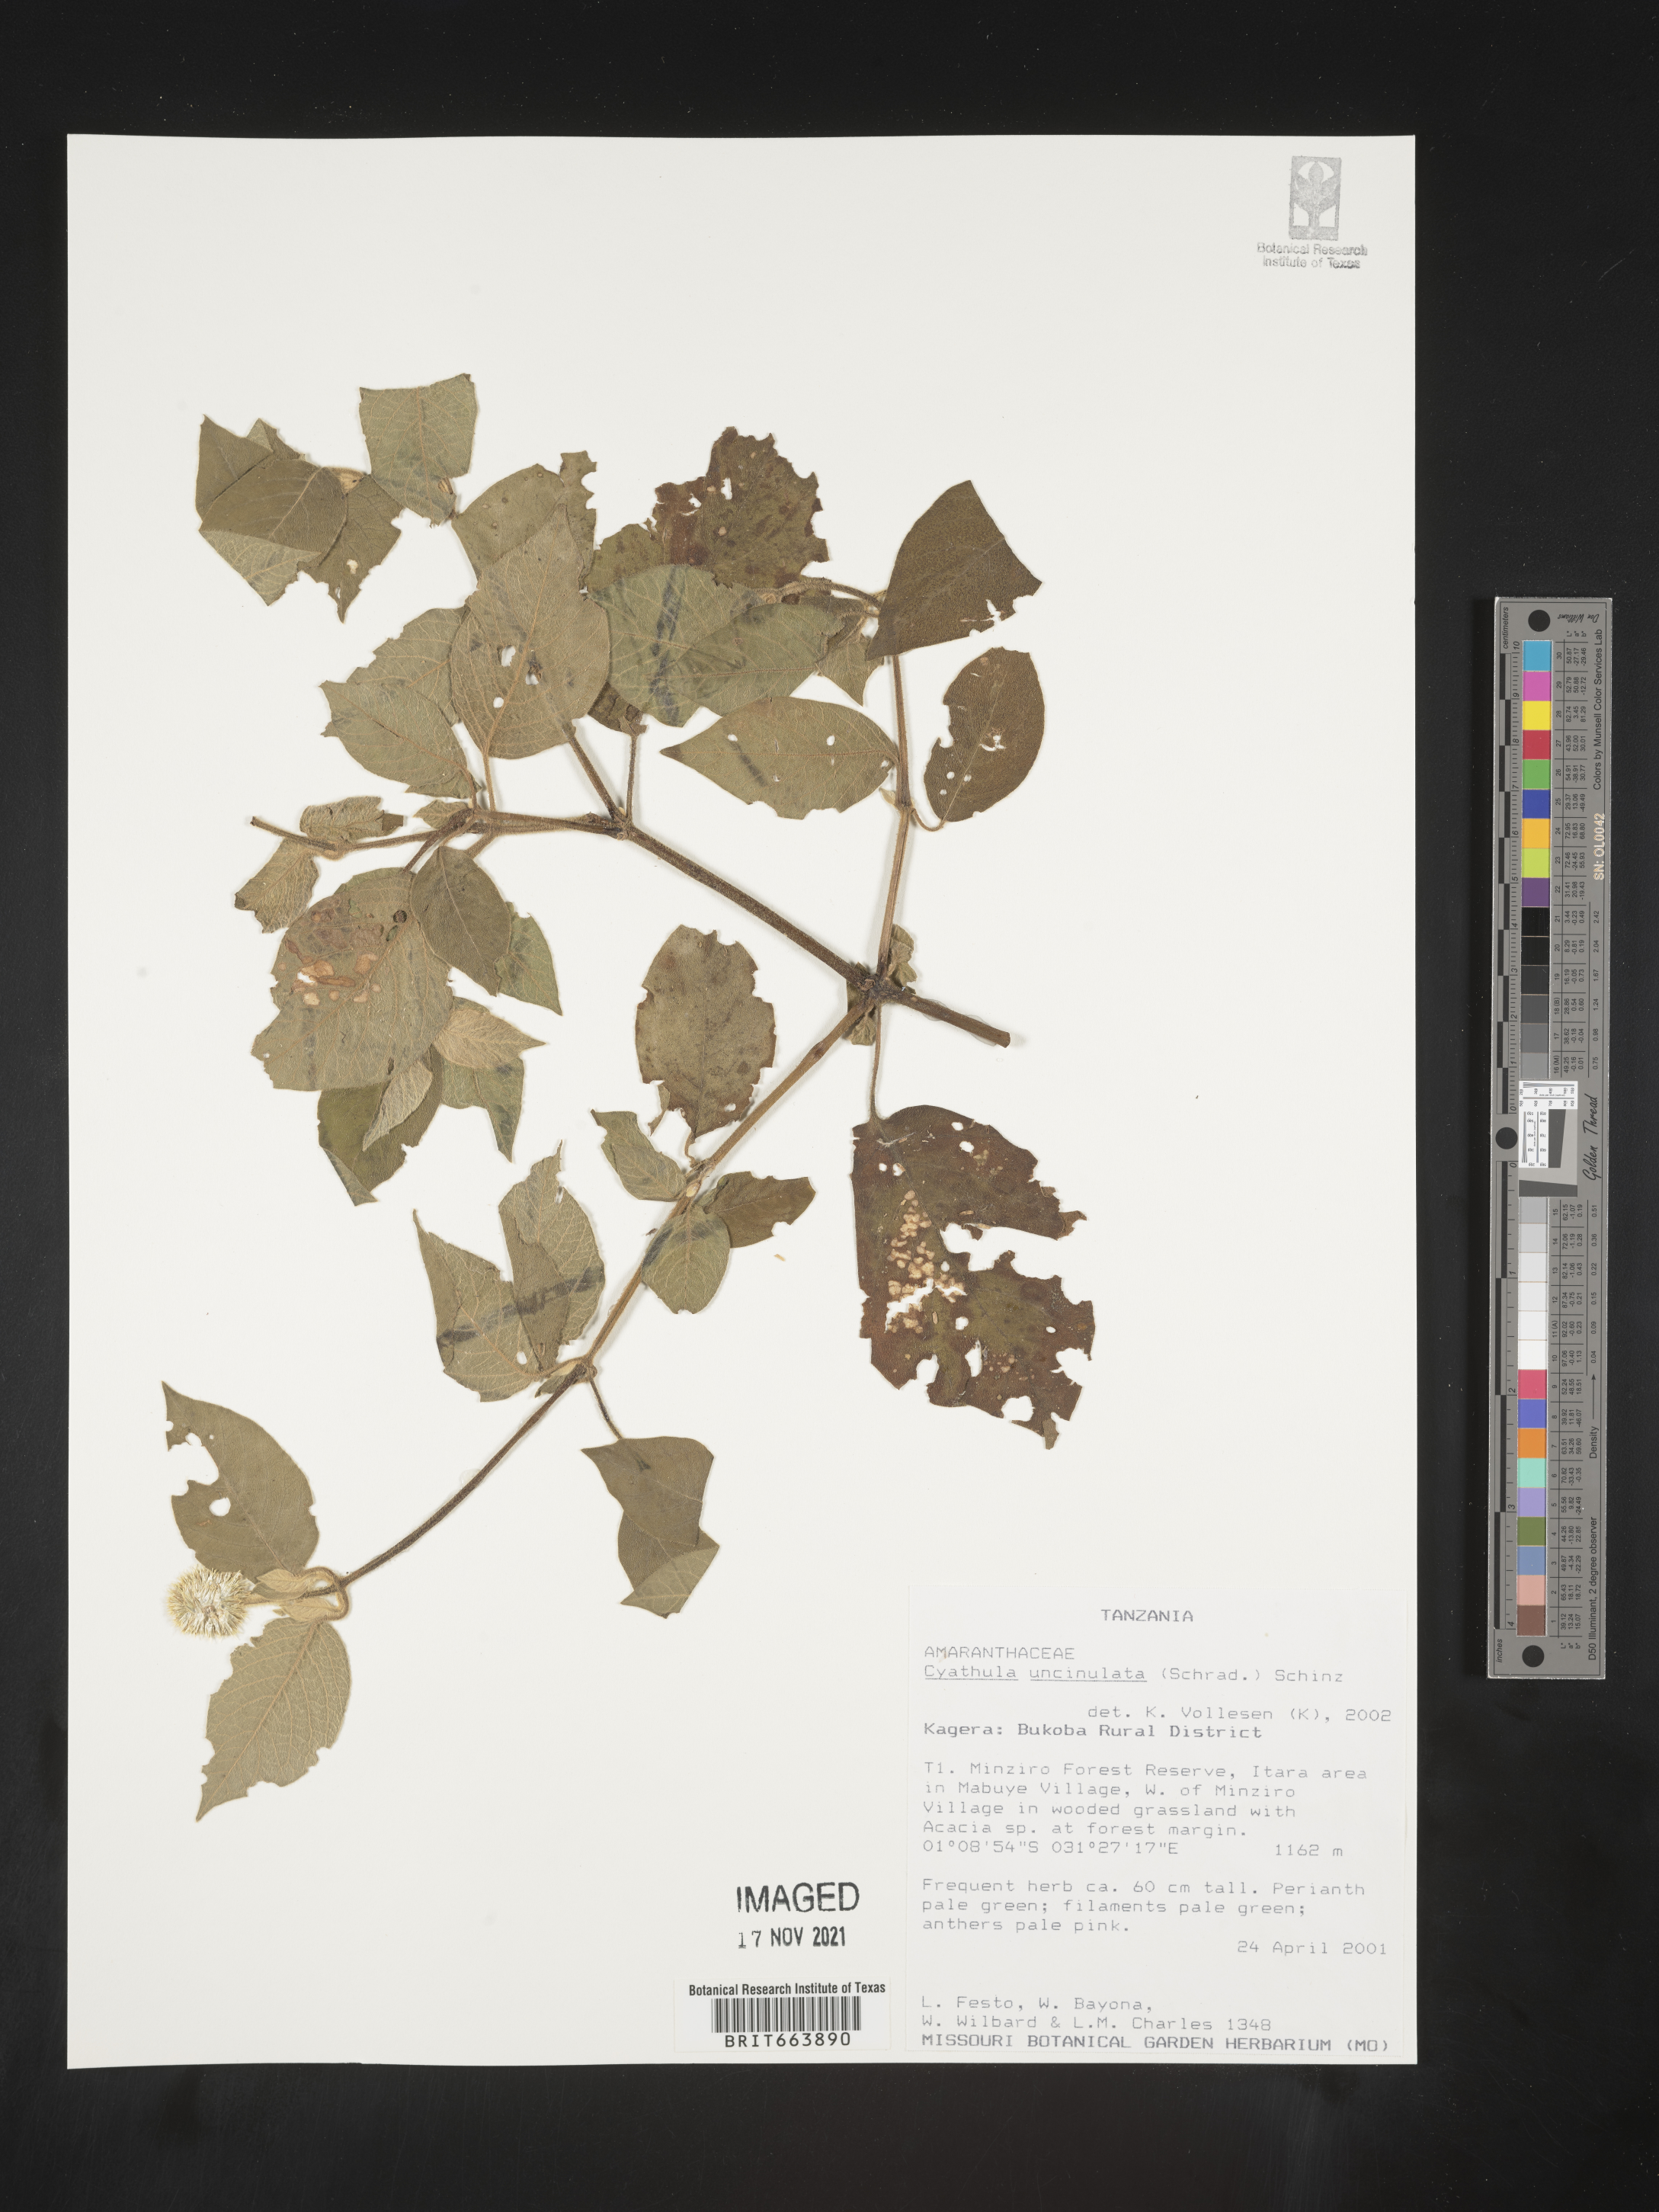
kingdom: Plantae
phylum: Tracheophyta
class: Magnoliopsida
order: Caryophyllales
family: Amaranthaceae
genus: Cyathula
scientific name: Cyathula
